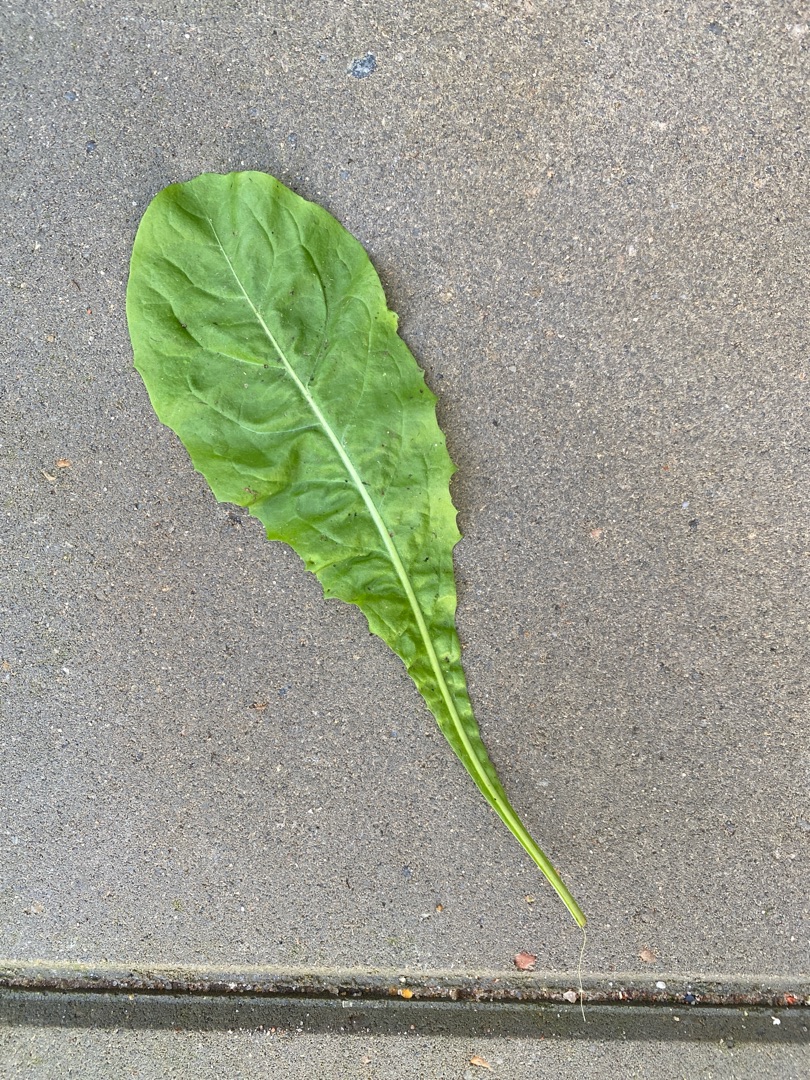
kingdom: Plantae
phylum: Tracheophyta
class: Magnoliopsida
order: Asterales
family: Asteraceae
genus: Taraxacum
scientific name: Taraxacum
